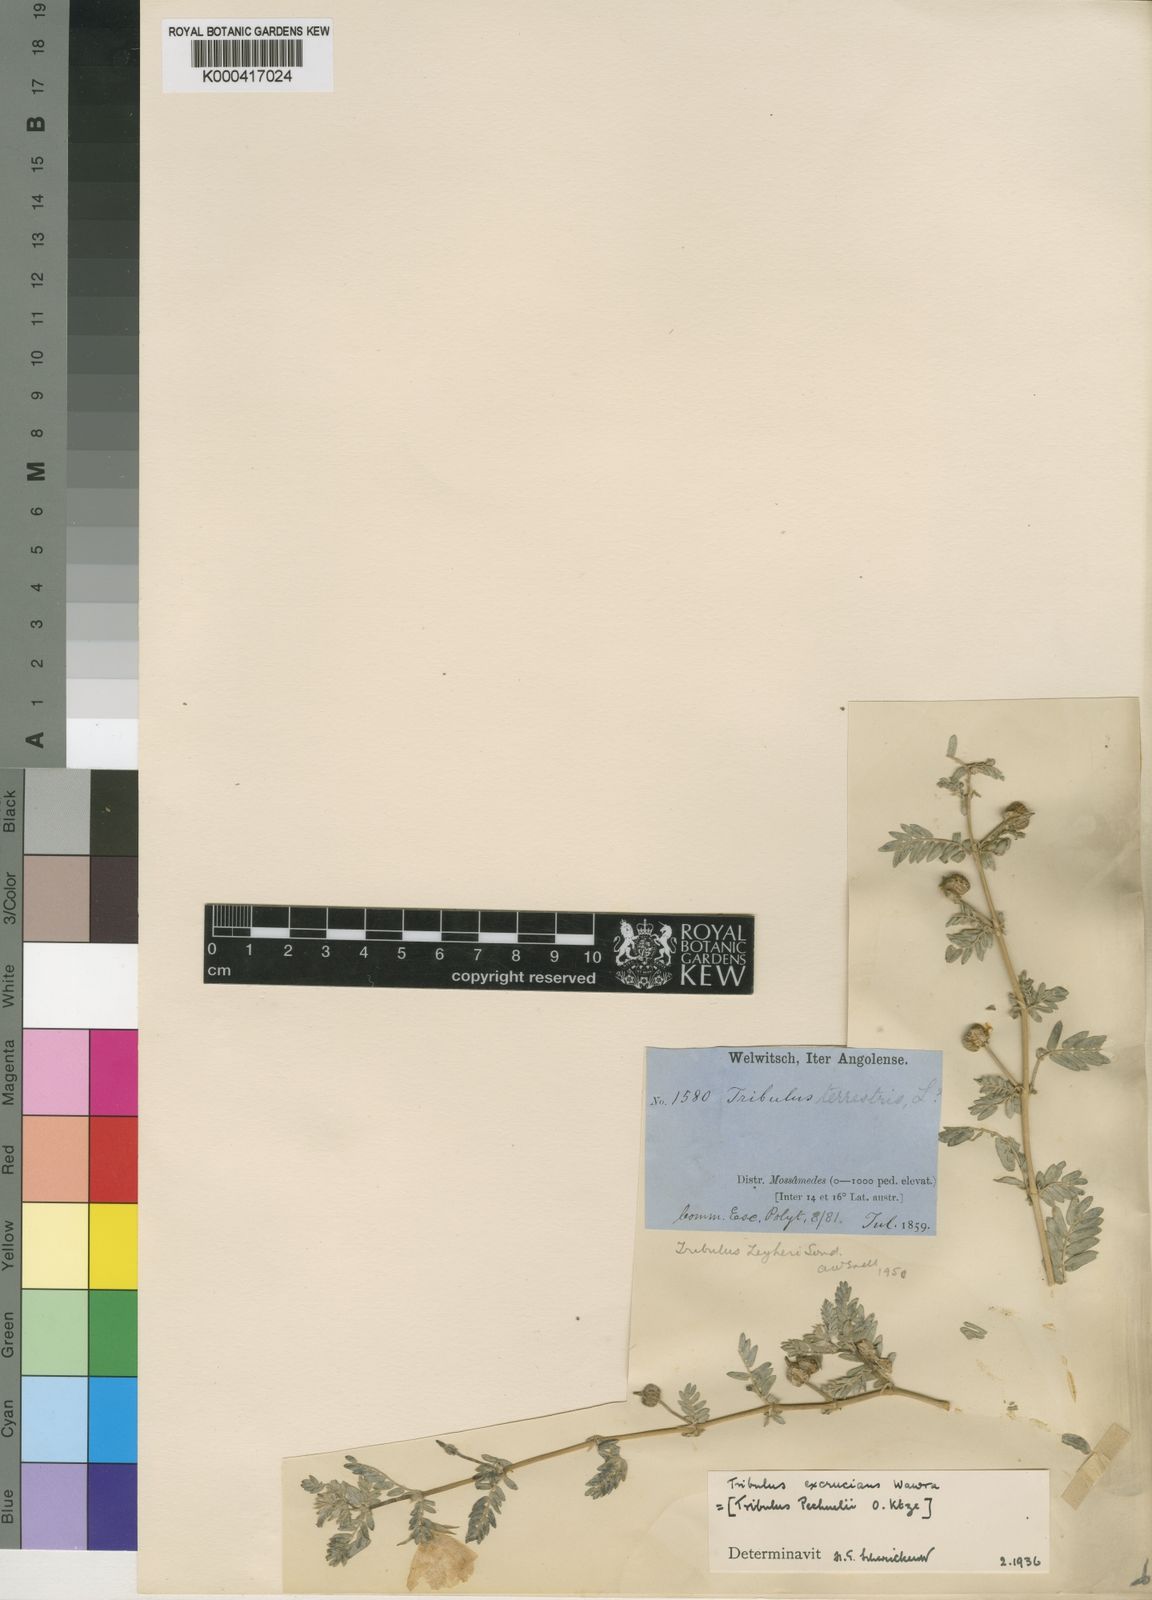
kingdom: Plantae
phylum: Tracheophyta
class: Magnoliopsida
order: Zygophyllales
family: Zygophyllaceae
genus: Tribulus
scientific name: Tribulus excrucians
